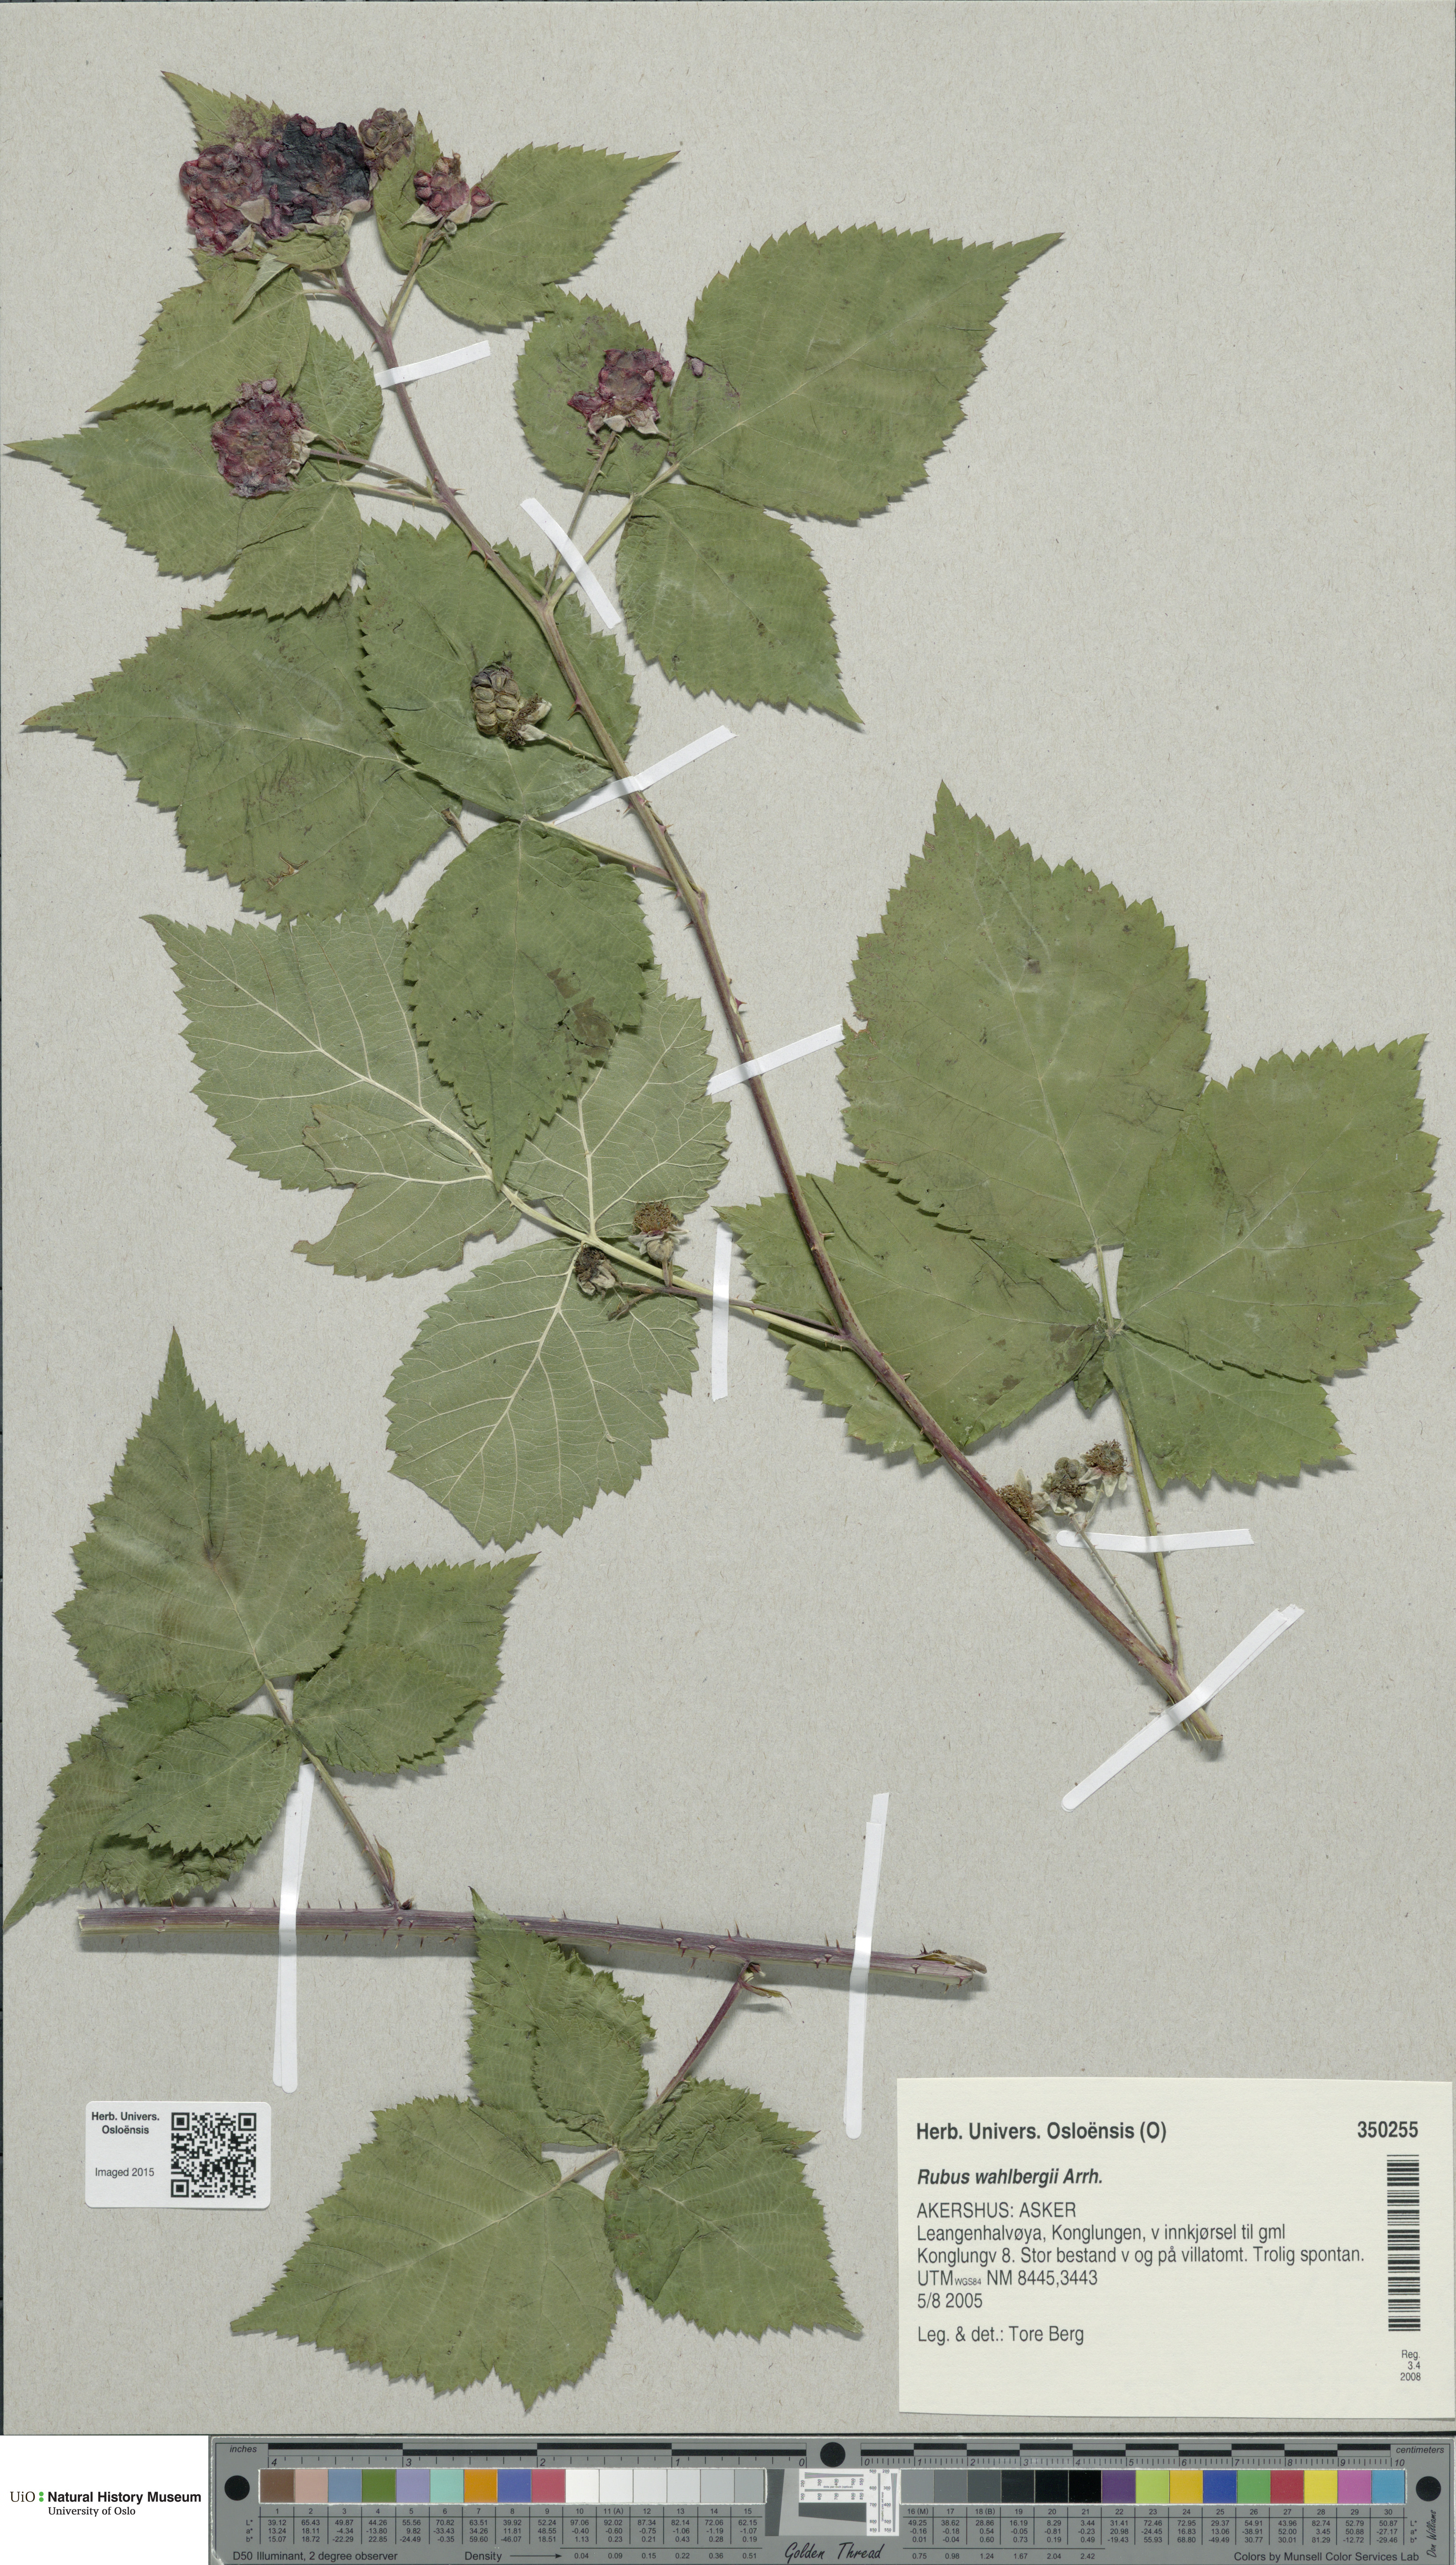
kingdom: Plantae
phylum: Tracheophyta
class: Magnoliopsida
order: Rosales
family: Rosaceae
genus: Rubus
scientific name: Rubus wahlbergii
